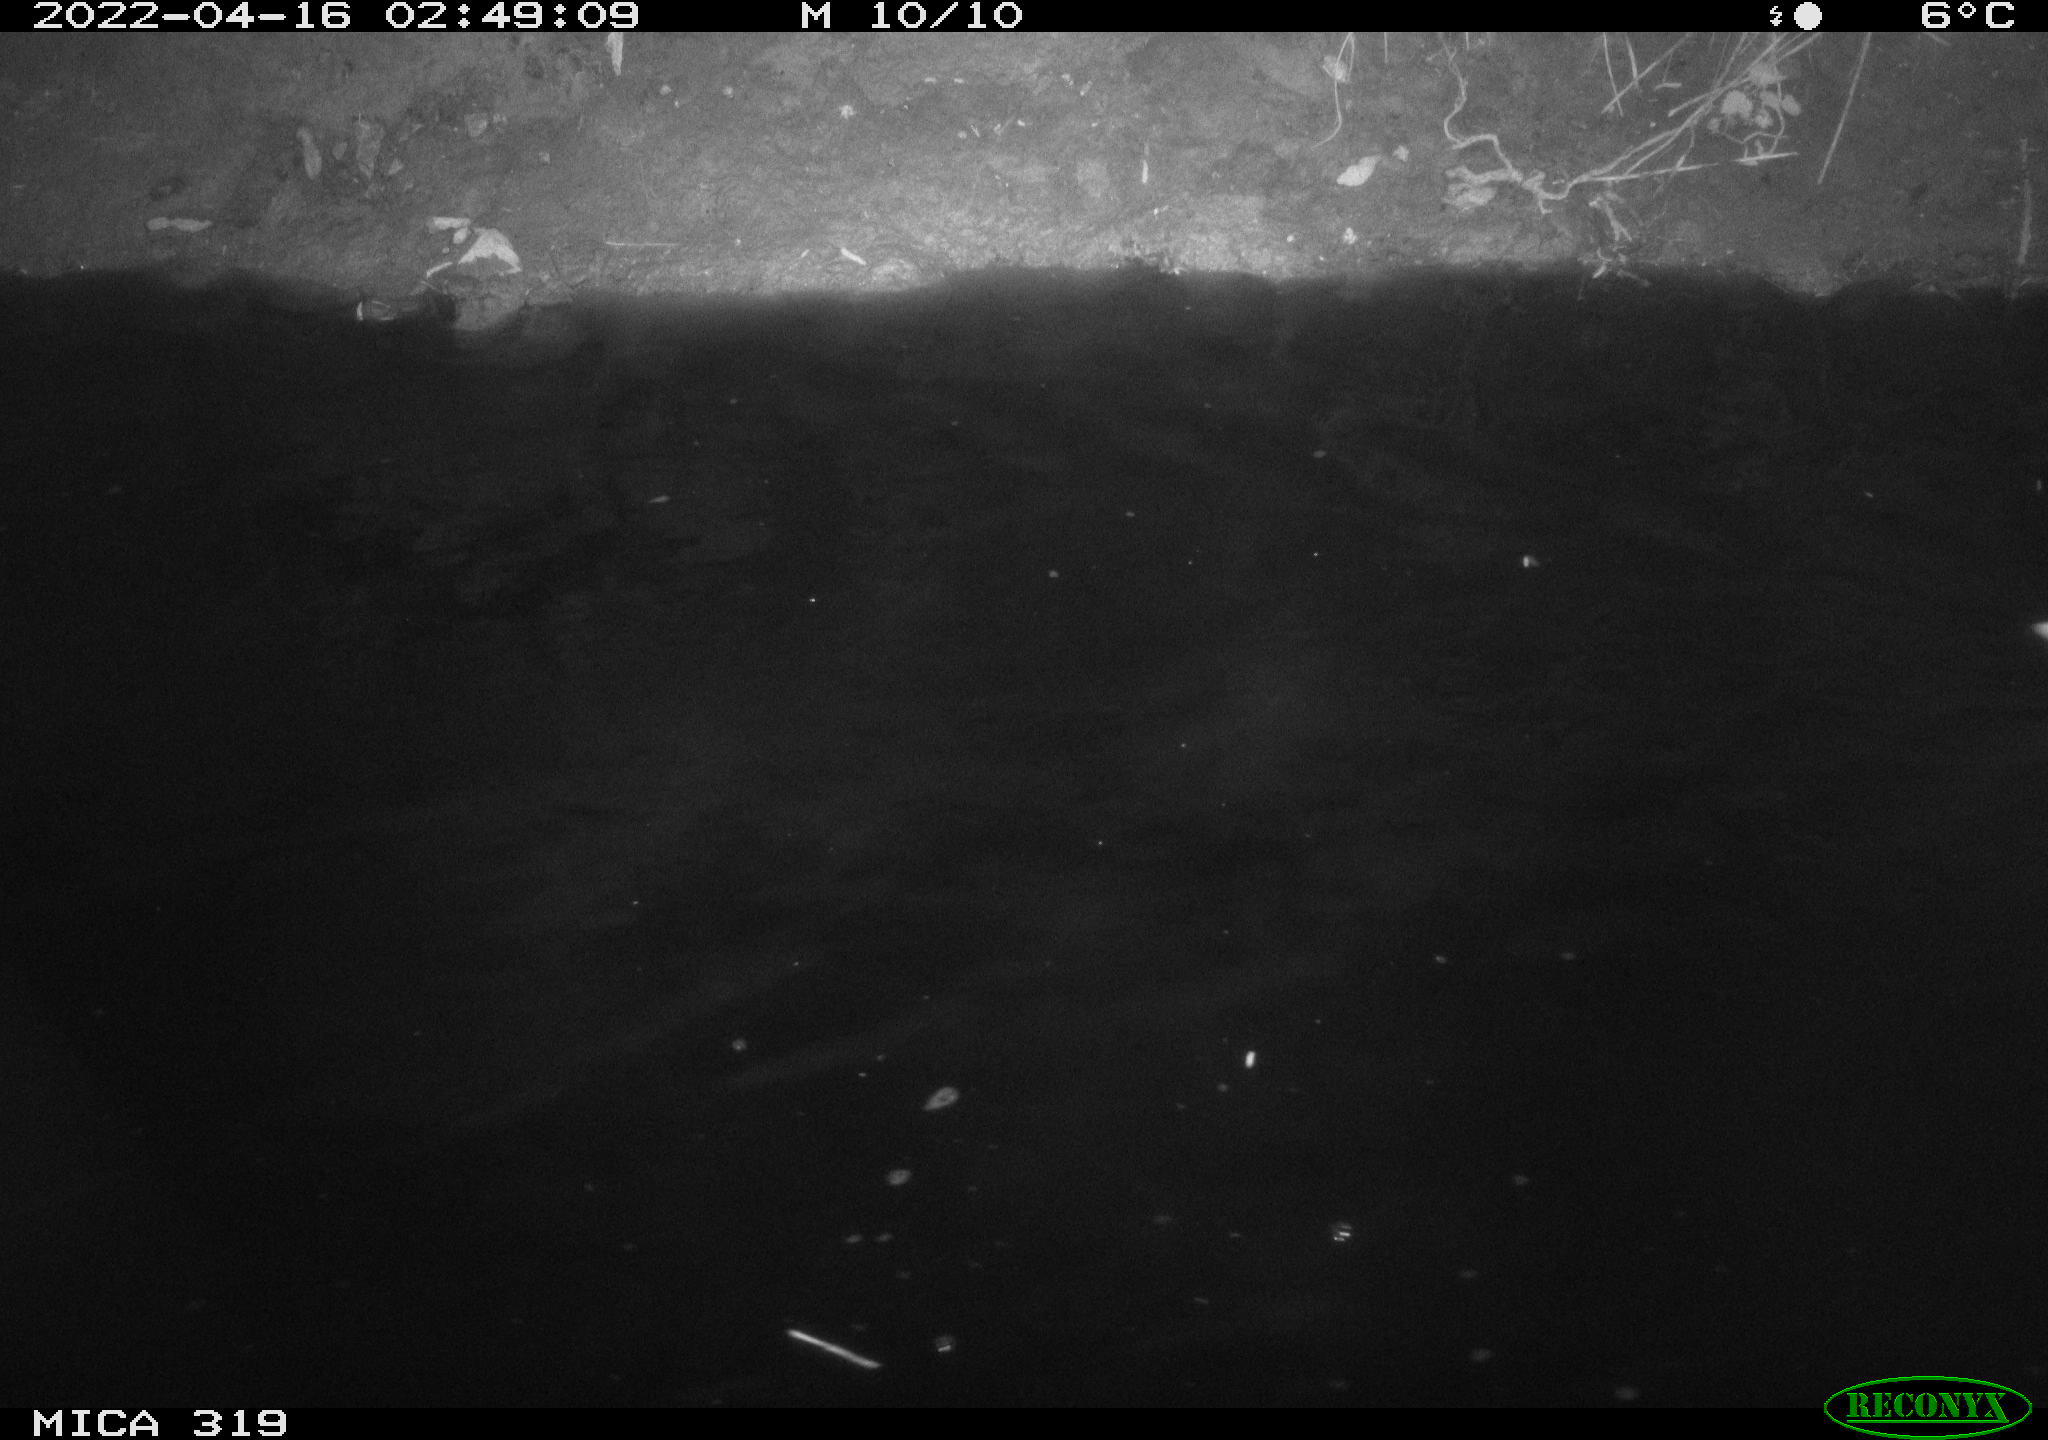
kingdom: Animalia
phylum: Chordata
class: Aves
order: Anseriformes
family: Anatidae
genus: Anas
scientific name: Anas platyrhynchos
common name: Mallard
